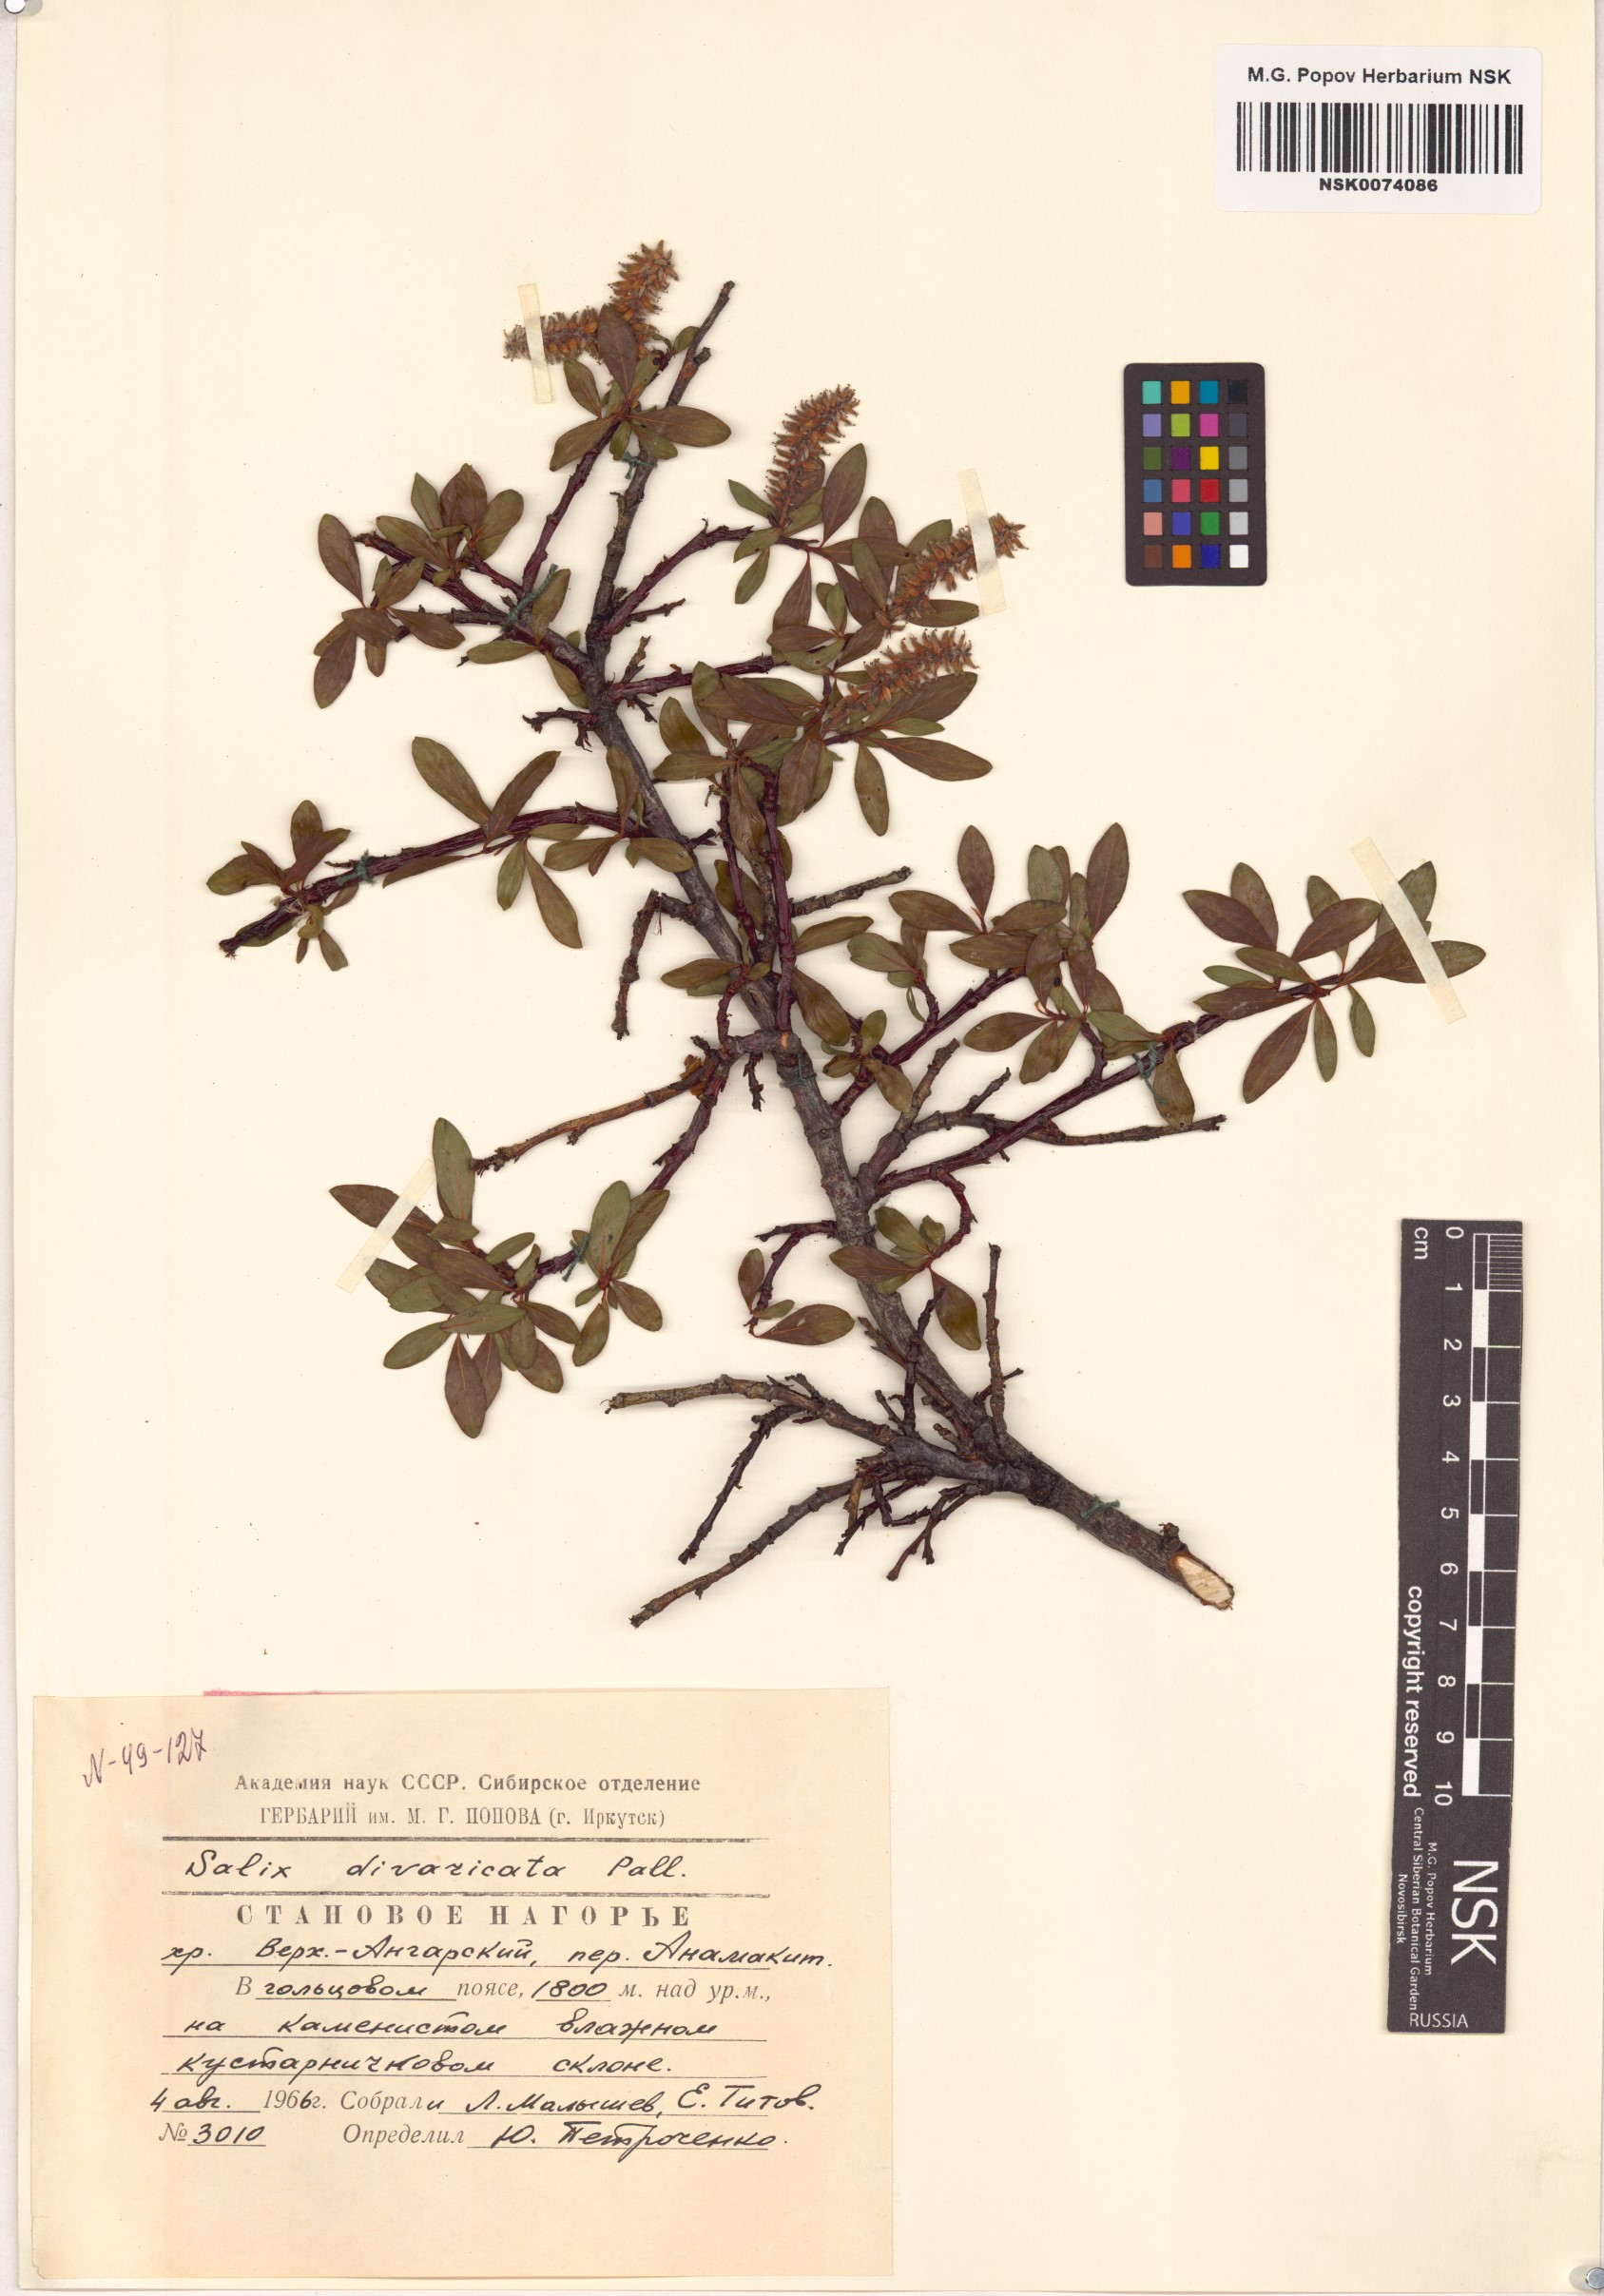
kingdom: Plantae
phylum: Tracheophyta
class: Magnoliopsida
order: Malpighiales
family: Salicaceae
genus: Salix
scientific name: Salix divaricata
